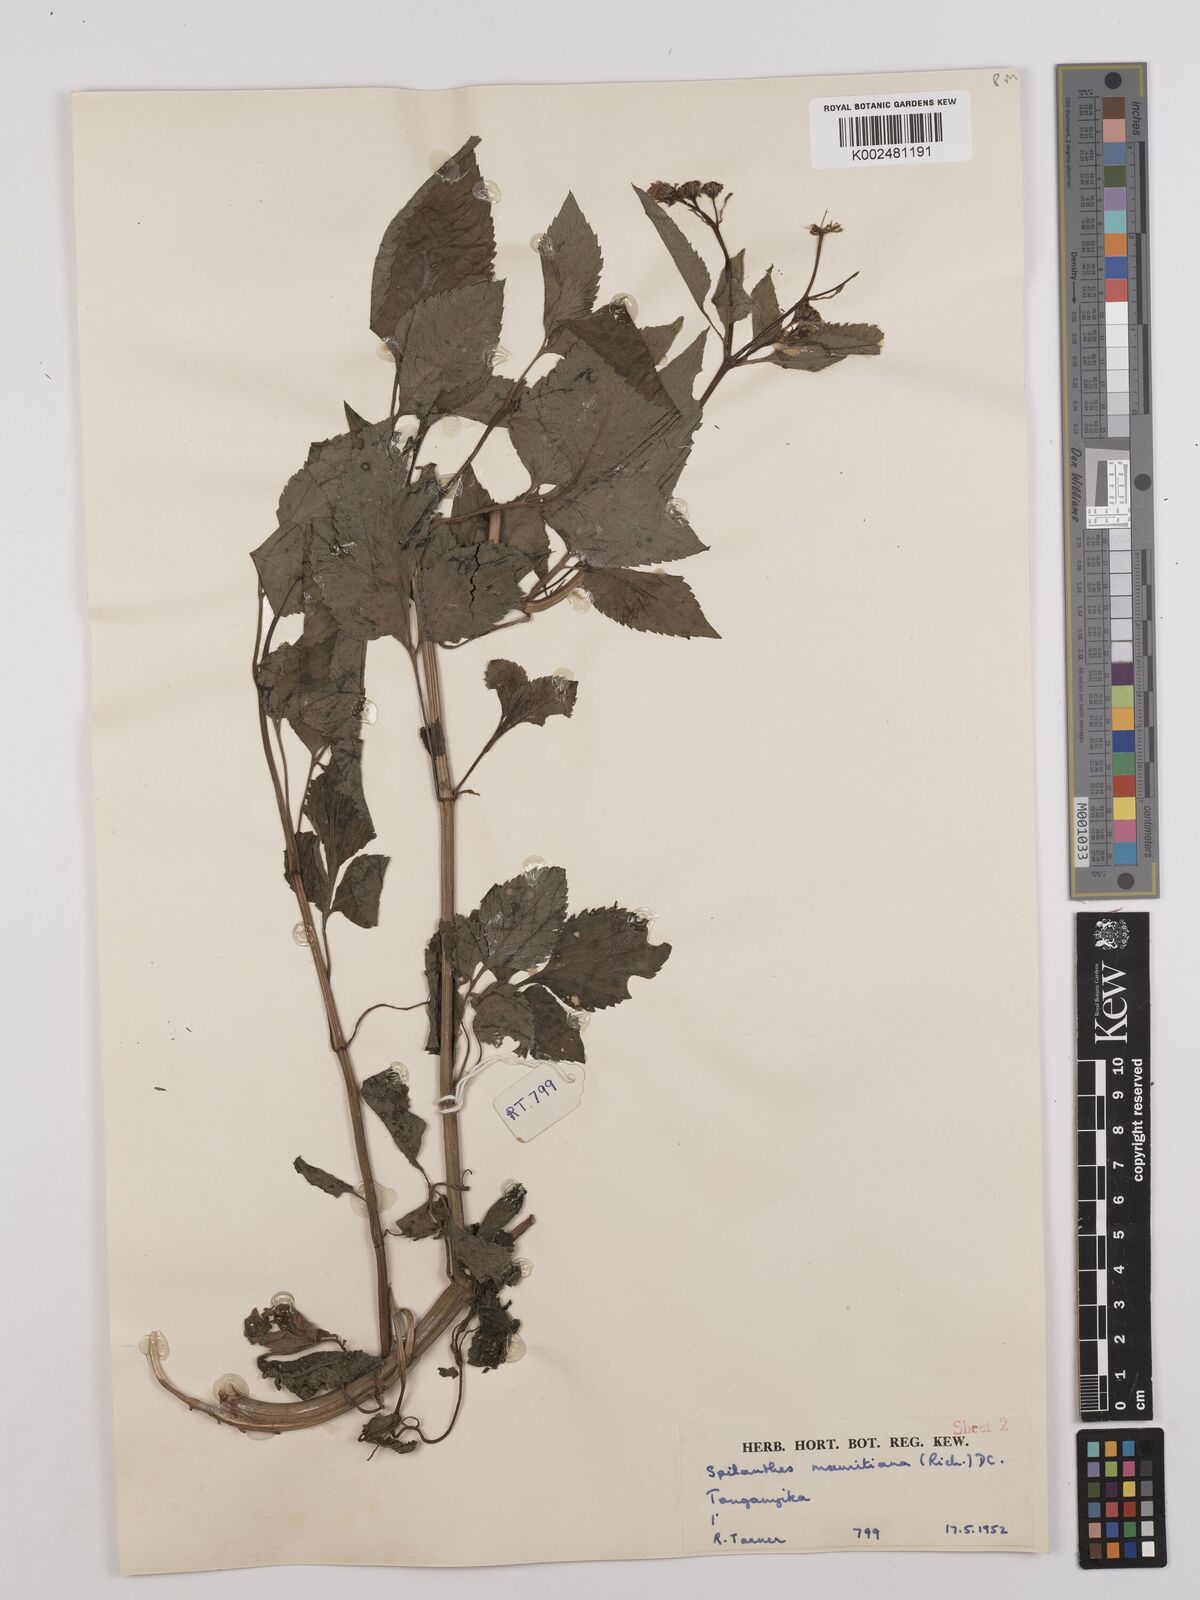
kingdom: Plantae
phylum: Tracheophyta
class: Magnoliopsida
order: Asterales
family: Asteraceae
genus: Bidens
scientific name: Bidens pilosa
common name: Black-jack
